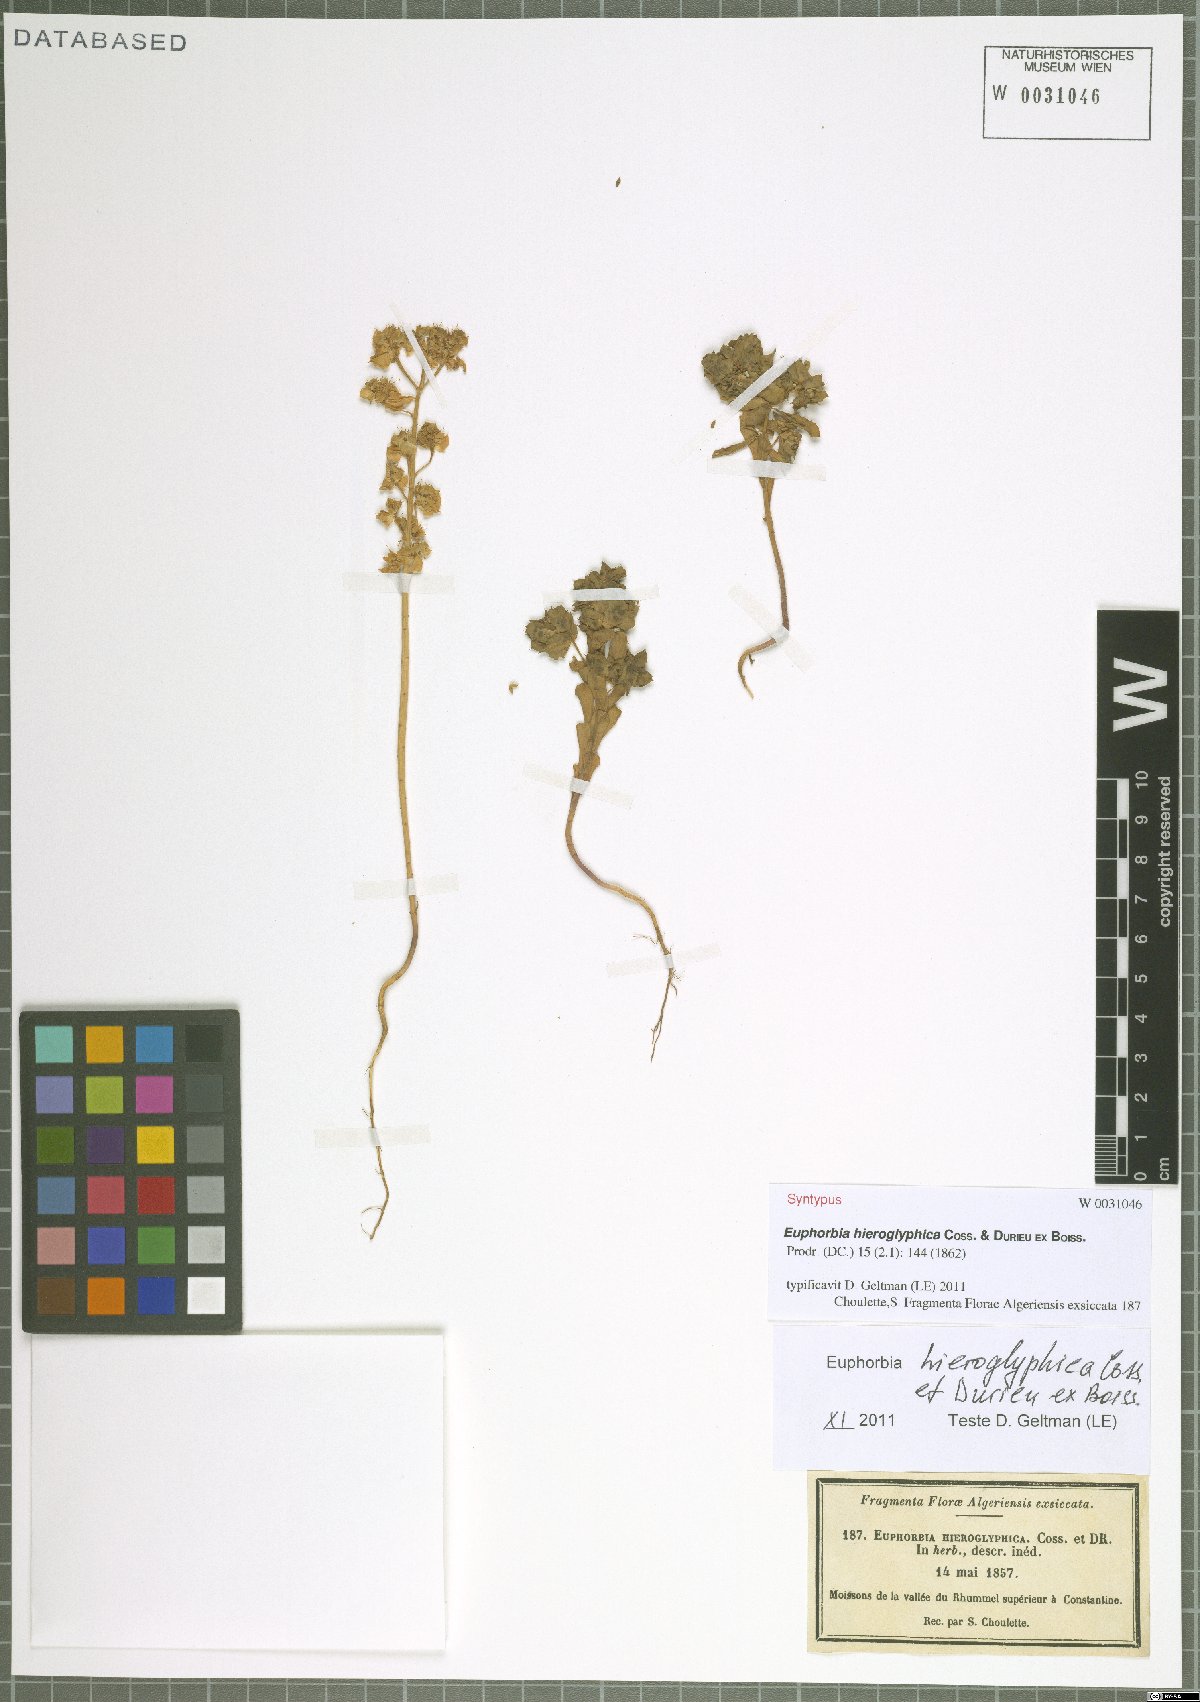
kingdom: Plantae
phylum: Tracheophyta
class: Magnoliopsida
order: Malpighiales
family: Euphorbiaceae
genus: Euphorbia
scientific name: Euphorbia hieroglyphica
